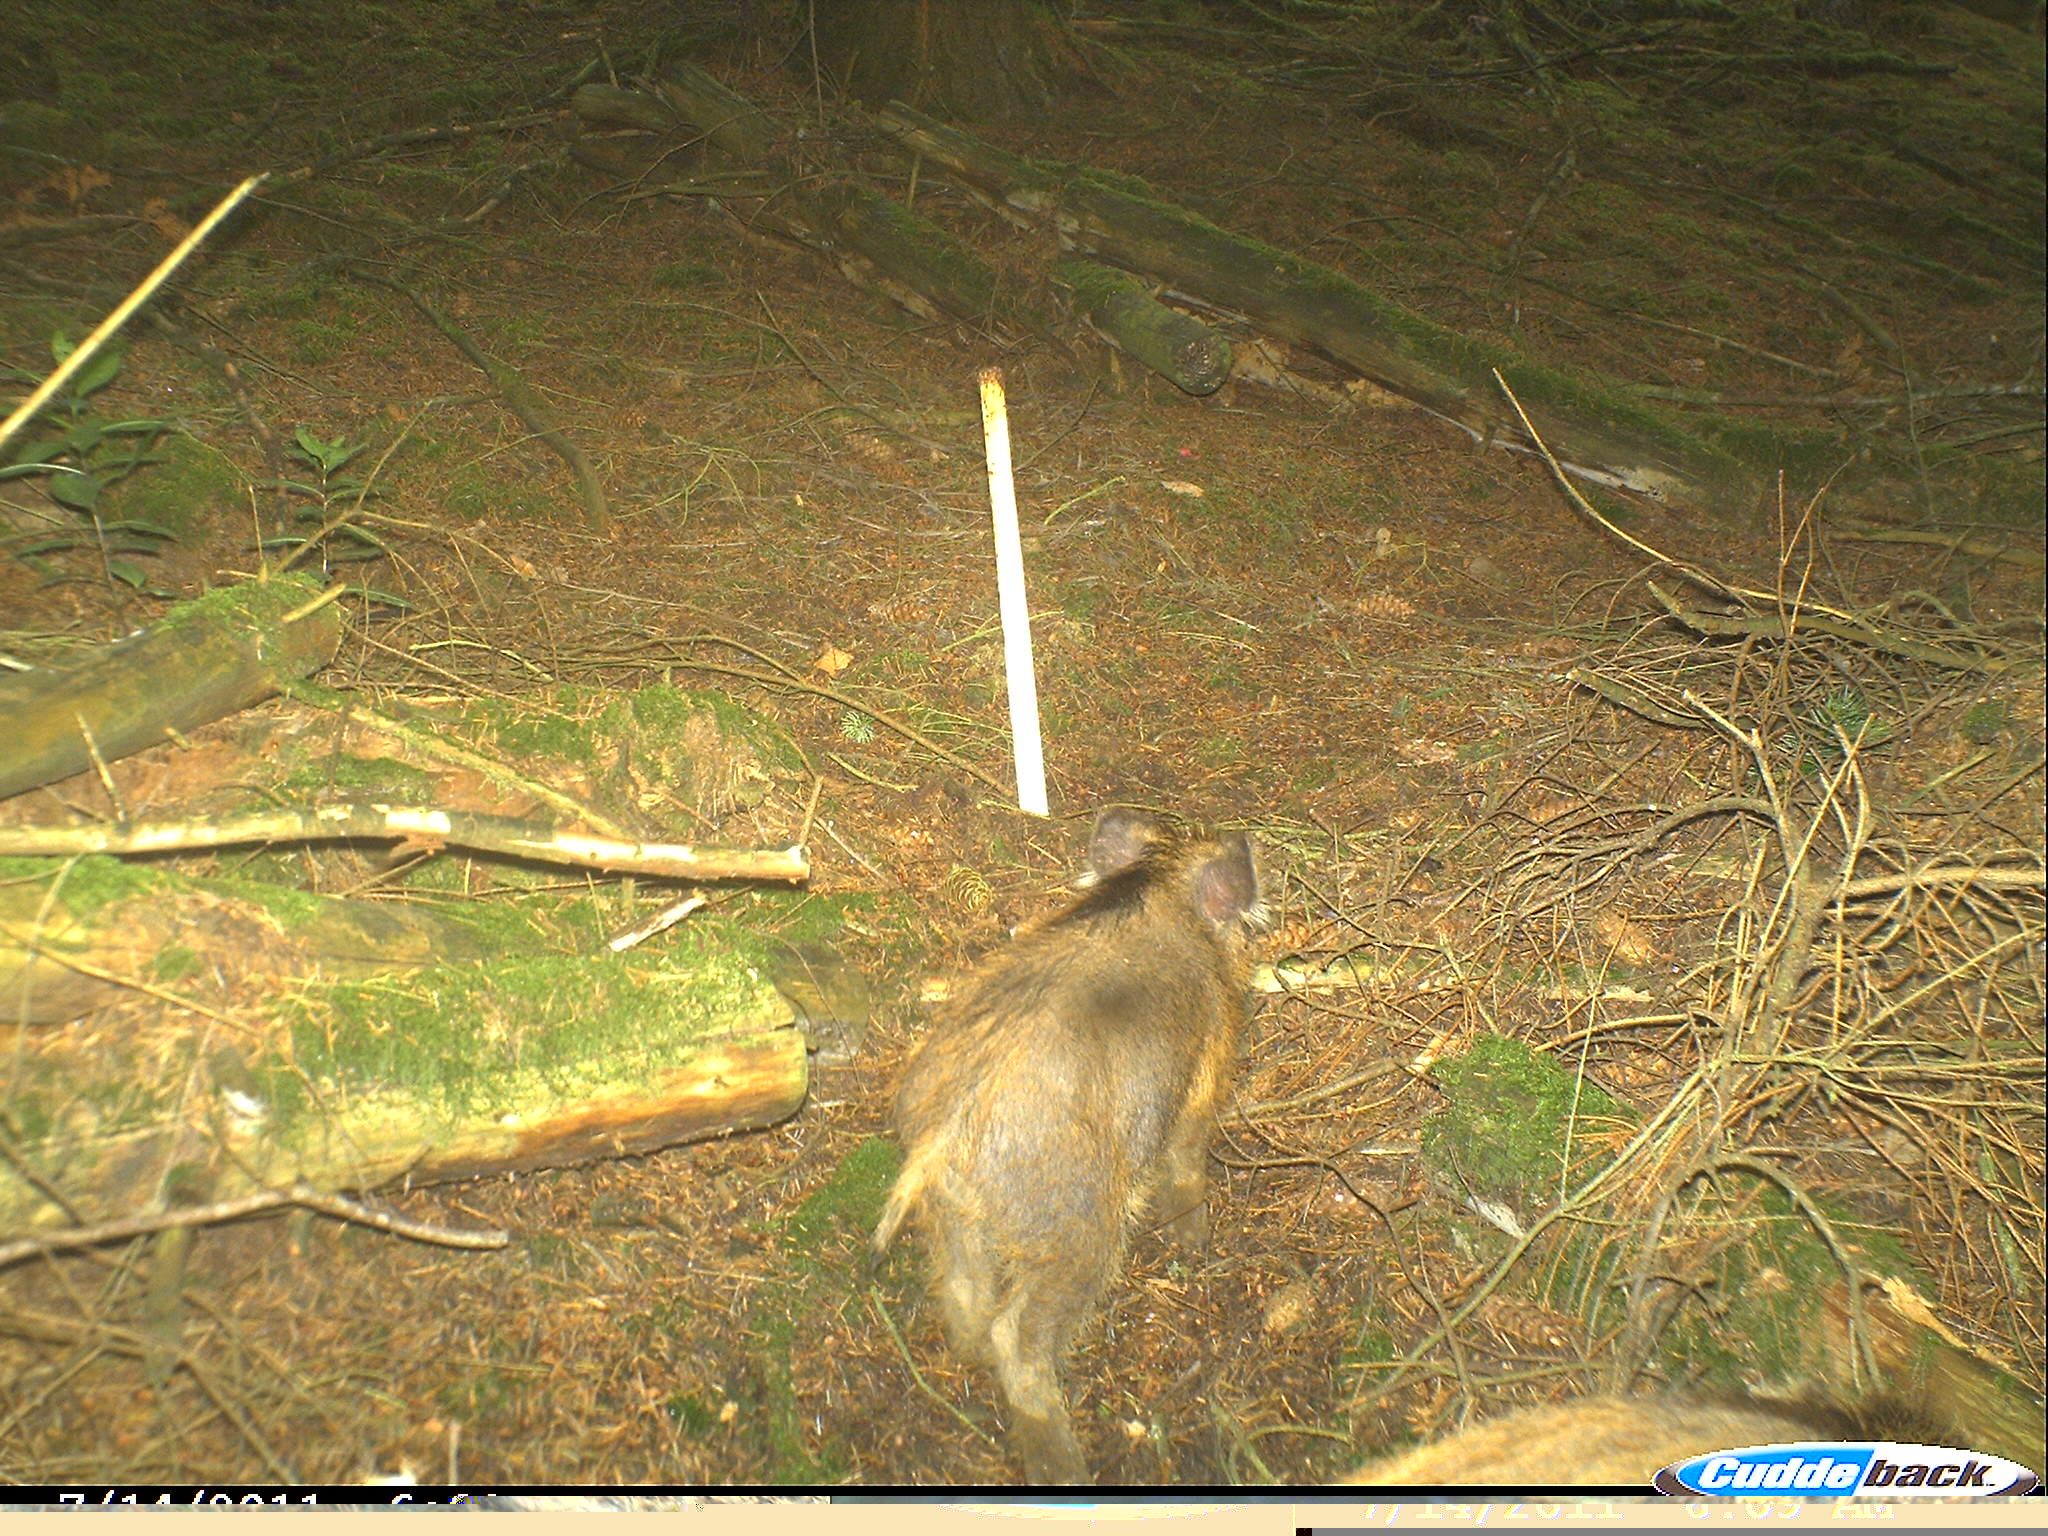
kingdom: Animalia
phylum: Chordata
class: Mammalia
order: Artiodactyla
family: Suidae
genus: Sus
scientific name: Sus scrofa
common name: Wild boar
